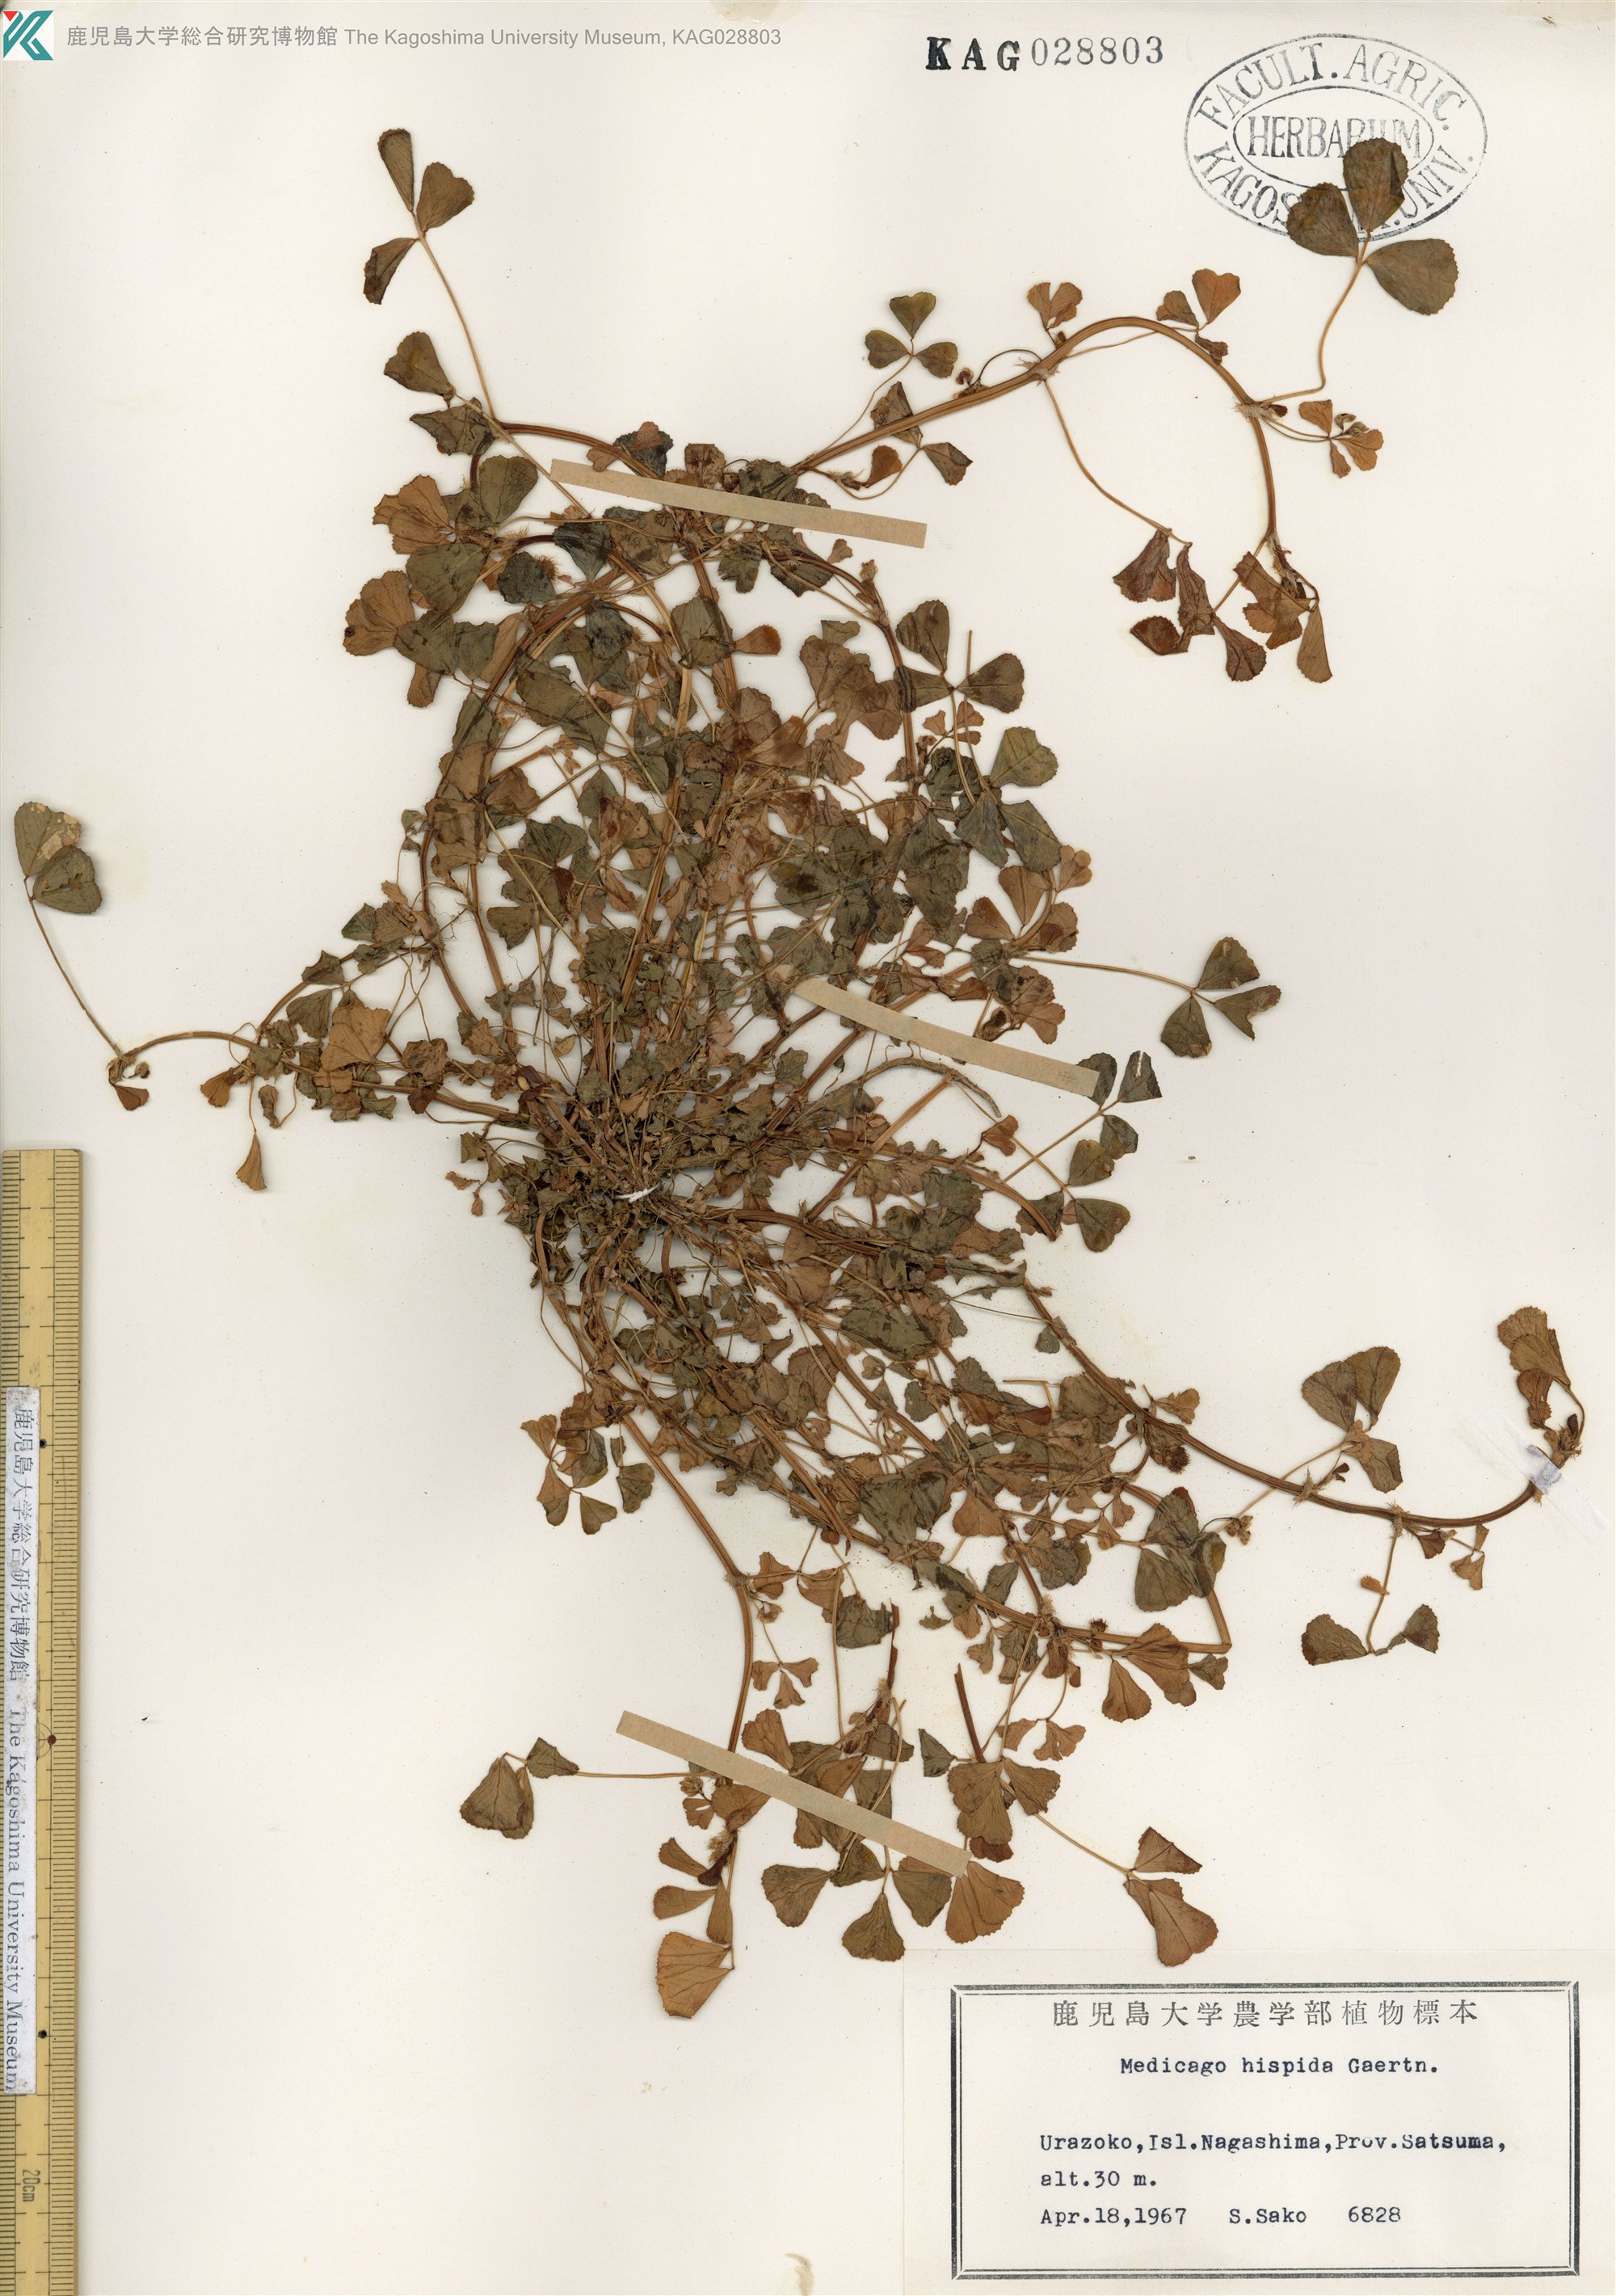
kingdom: Plantae
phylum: Tracheophyta
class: Magnoliopsida
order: Fabales
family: Fabaceae
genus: Medicago
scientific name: Medicago polymorpha
